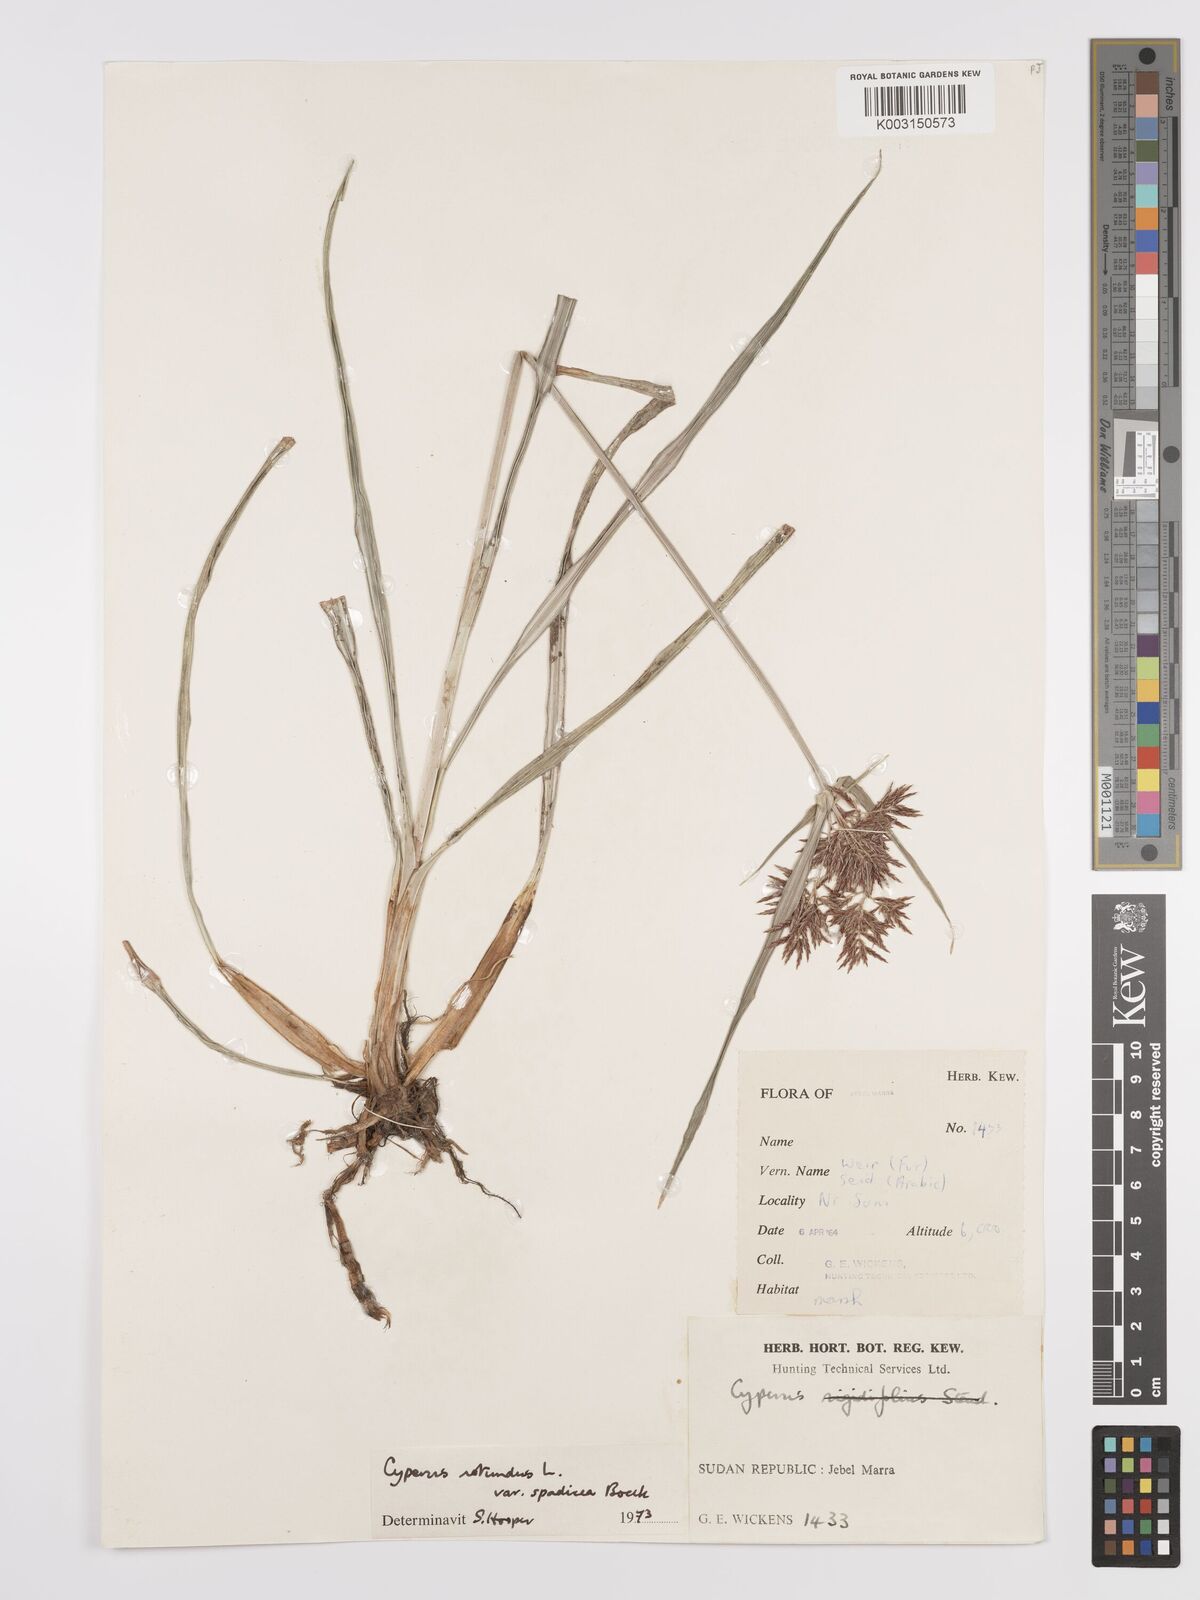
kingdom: Plantae
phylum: Tracheophyta
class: Liliopsida
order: Poales
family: Cyperaceae
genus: Cyperus
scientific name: Cyperus rotundus
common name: Nutgrass
